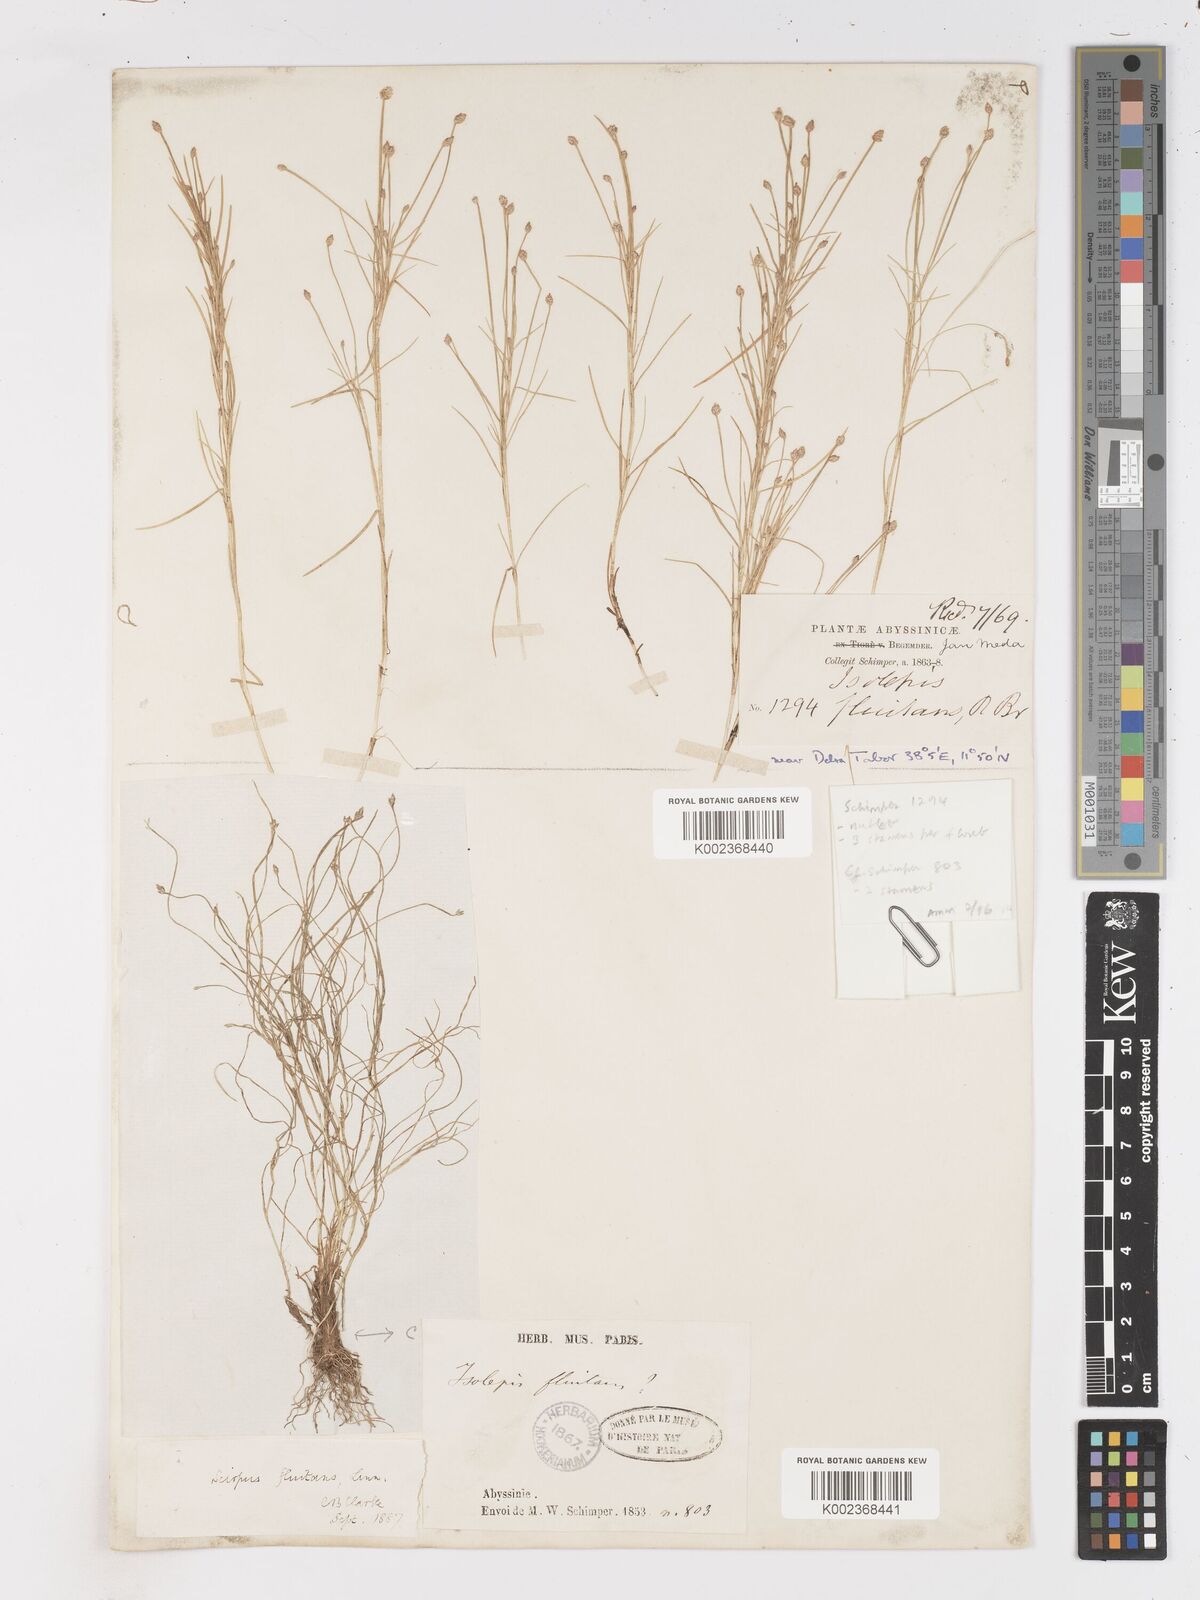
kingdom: Plantae
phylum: Tracheophyta
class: Liliopsida
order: Poales
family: Cyperaceae
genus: Isolepis
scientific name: Isolepis fluitans
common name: Floating club-rush
